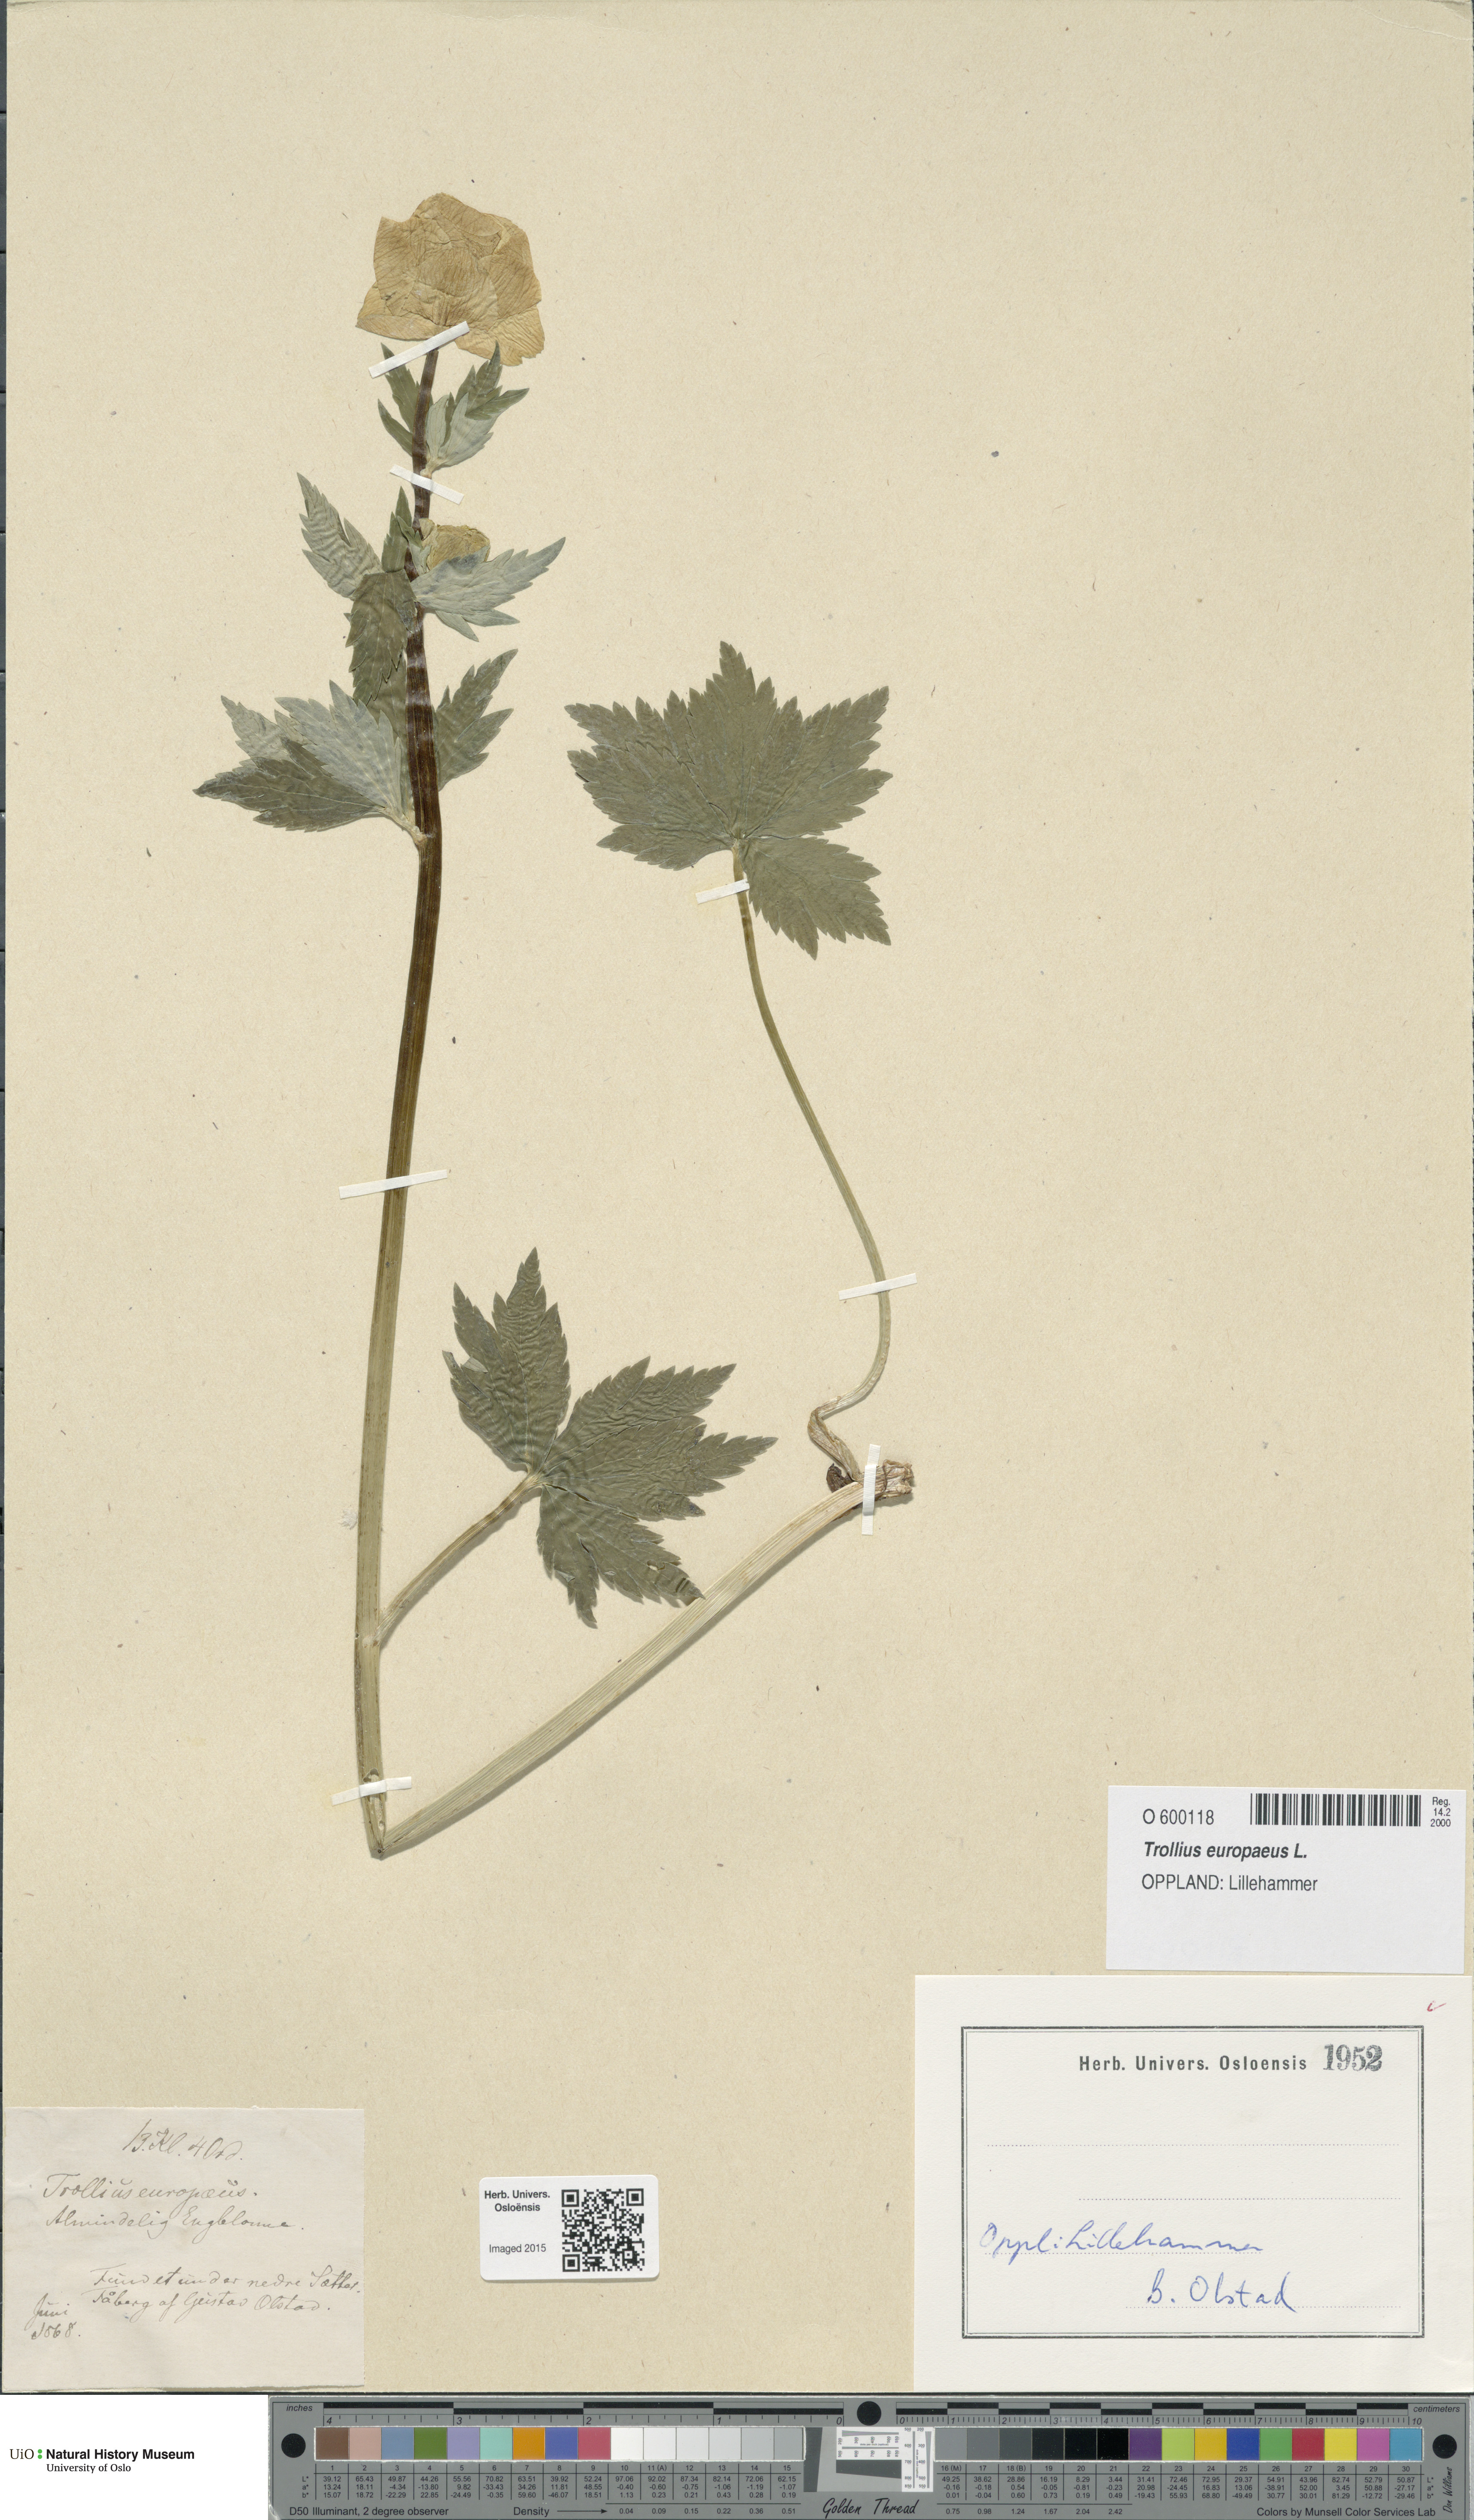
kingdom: Plantae
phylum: Tracheophyta
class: Magnoliopsida
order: Ranunculales
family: Ranunculaceae
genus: Trollius
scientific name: Trollius europaeus
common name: European globeflower
